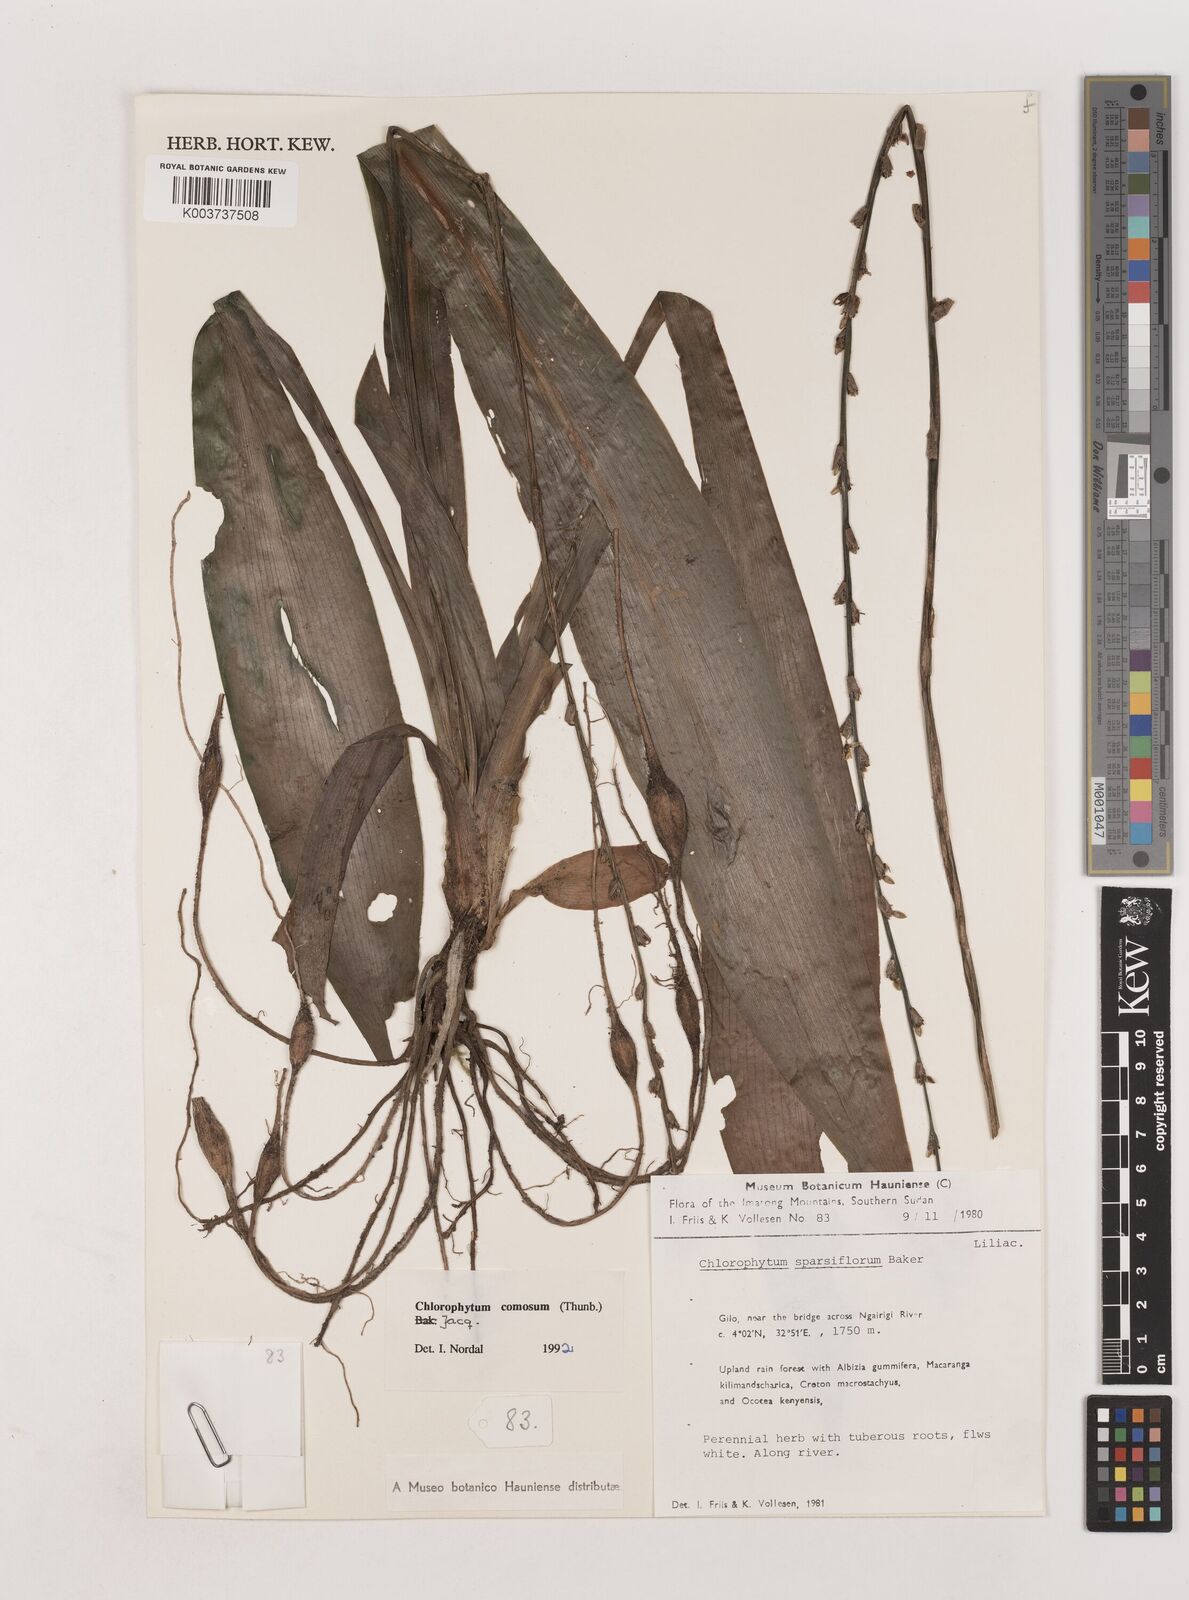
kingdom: Plantae
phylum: Tracheophyta
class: Liliopsida
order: Asparagales
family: Asparagaceae
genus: Chlorophytum
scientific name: Chlorophytum comosum
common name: Spider plant
